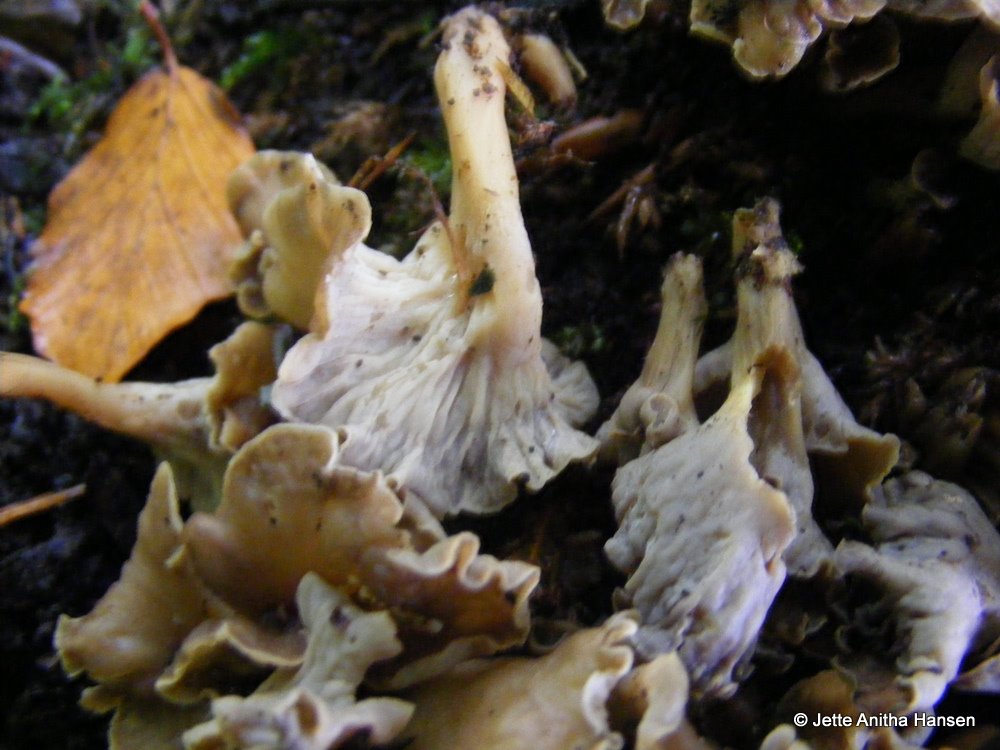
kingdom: Fungi
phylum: Basidiomycota
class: Agaricomycetes
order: Cantharellales
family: Hydnaceae
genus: Craterellus
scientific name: Craterellus undulatus
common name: liden kantarel
